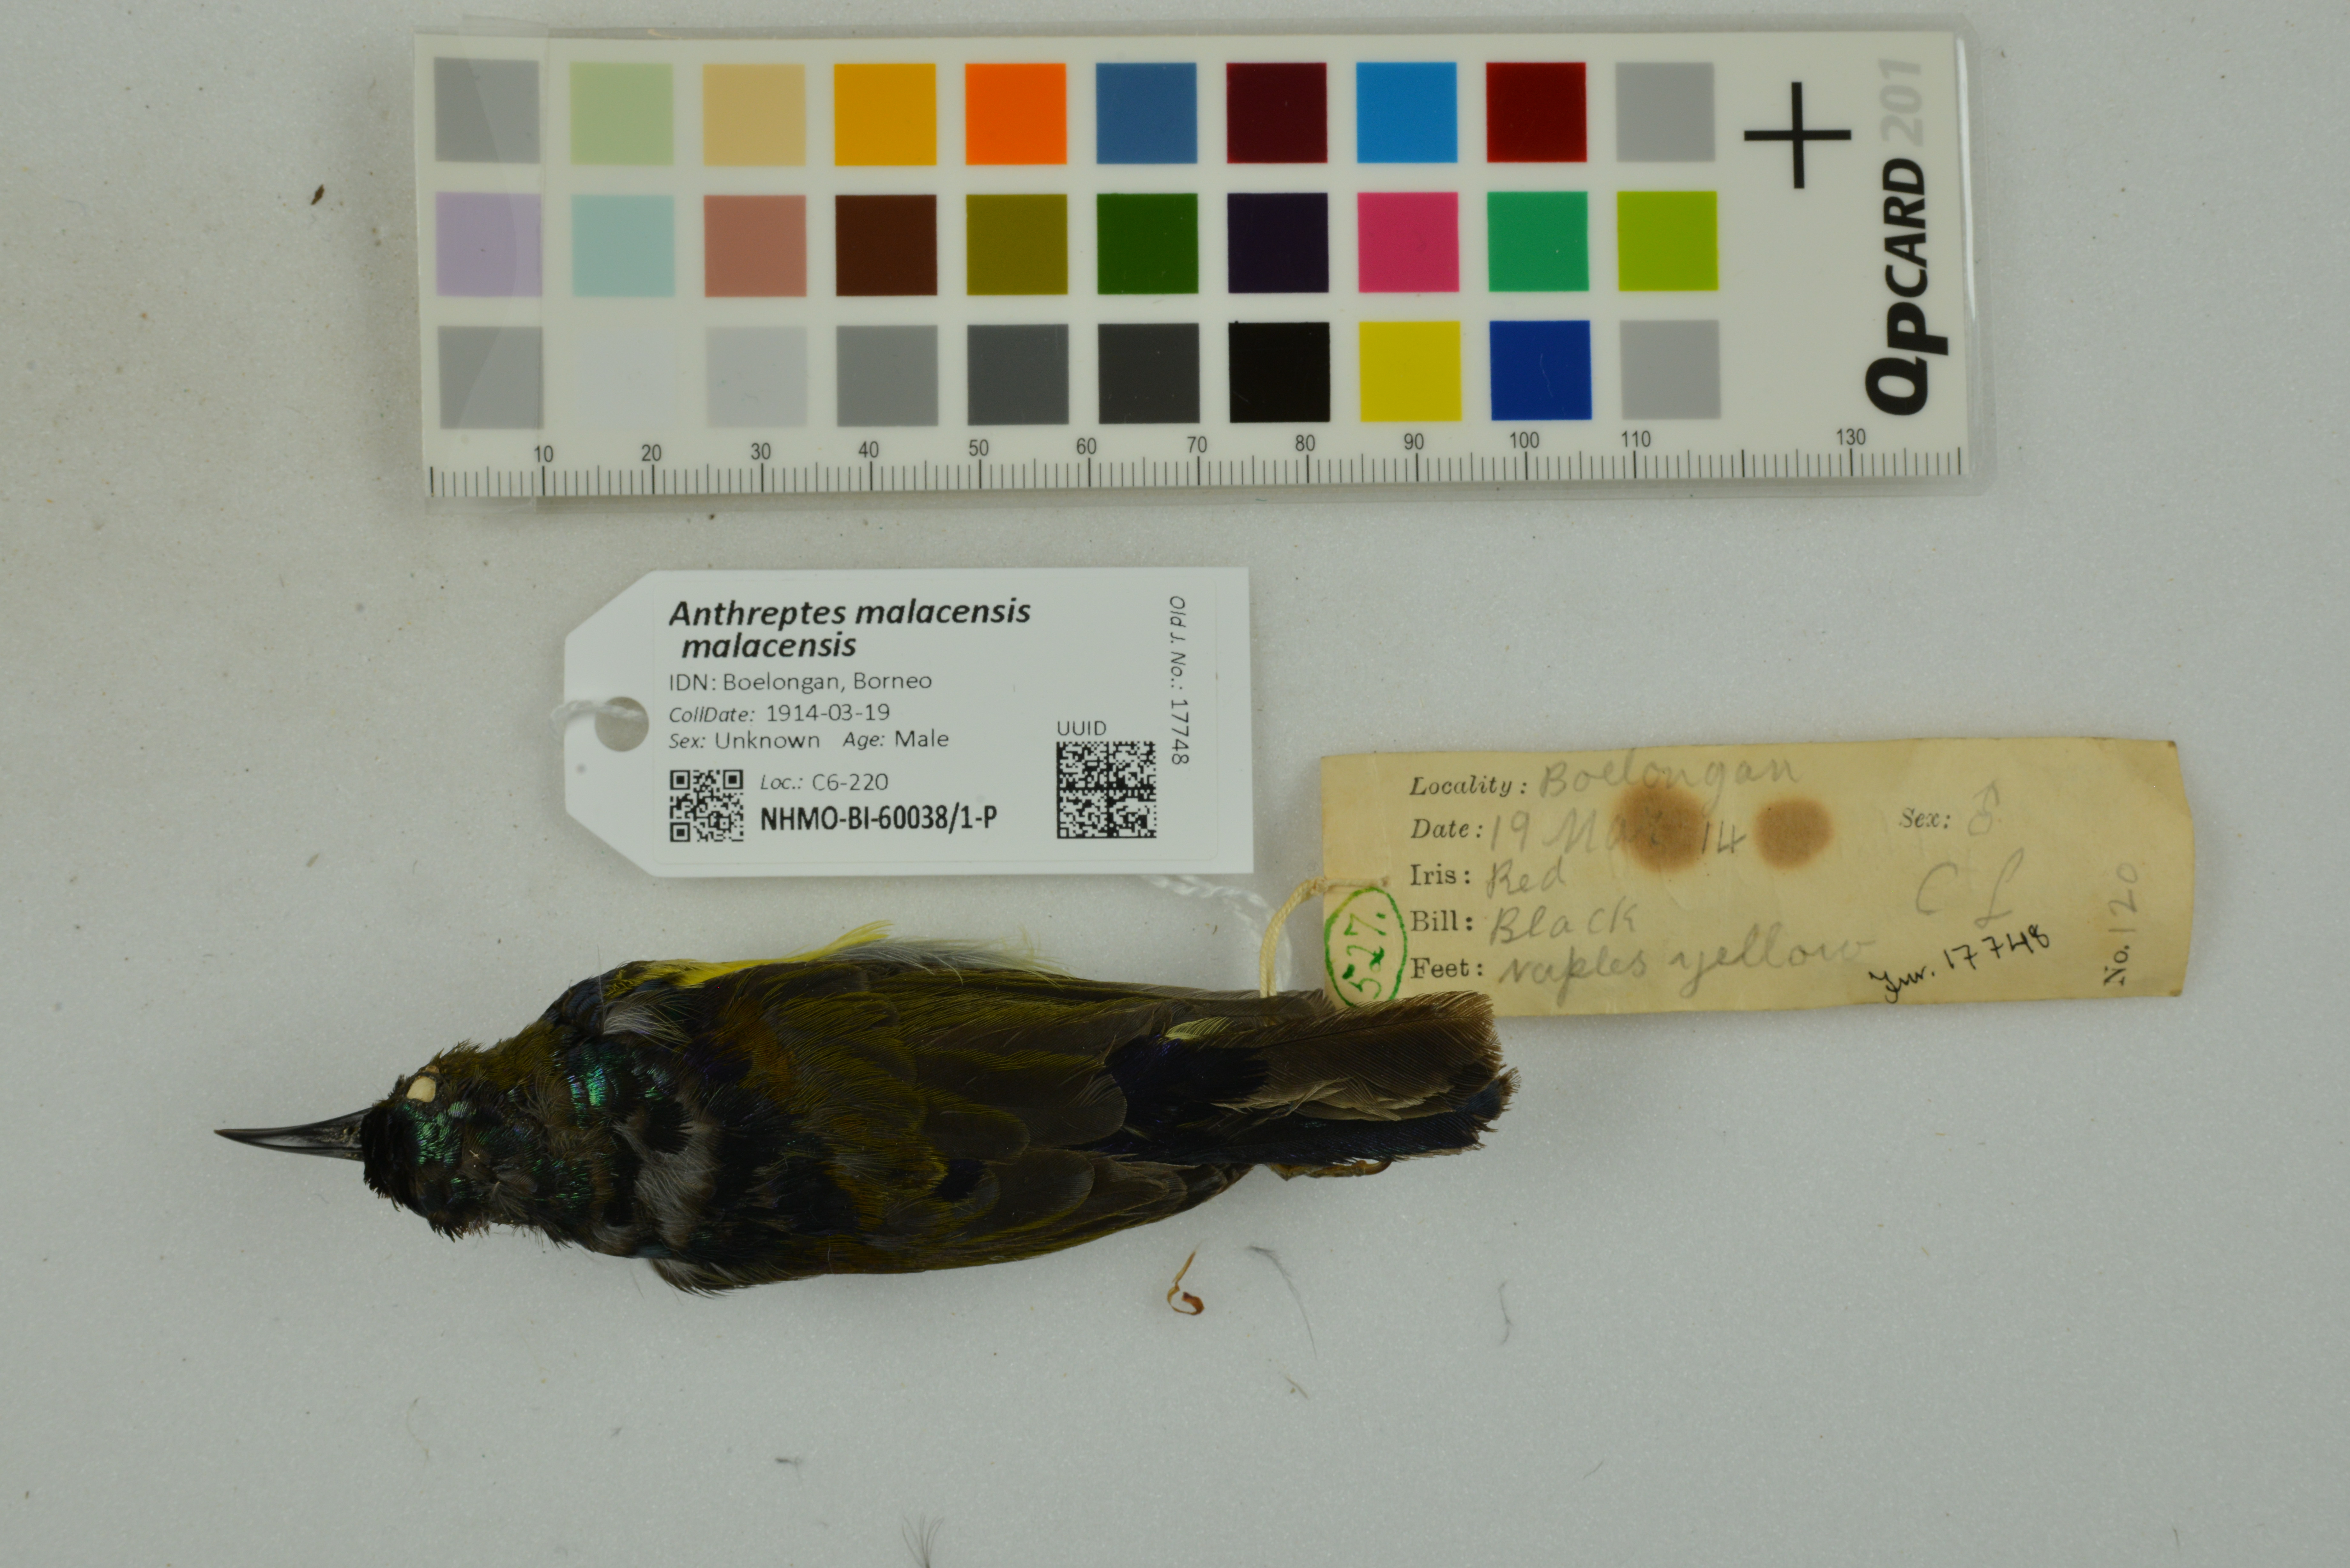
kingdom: Animalia
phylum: Chordata
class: Aves
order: Passeriformes
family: Nectariniidae
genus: Anthreptes
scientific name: Anthreptes malacensis
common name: Brown-throated sunbird
